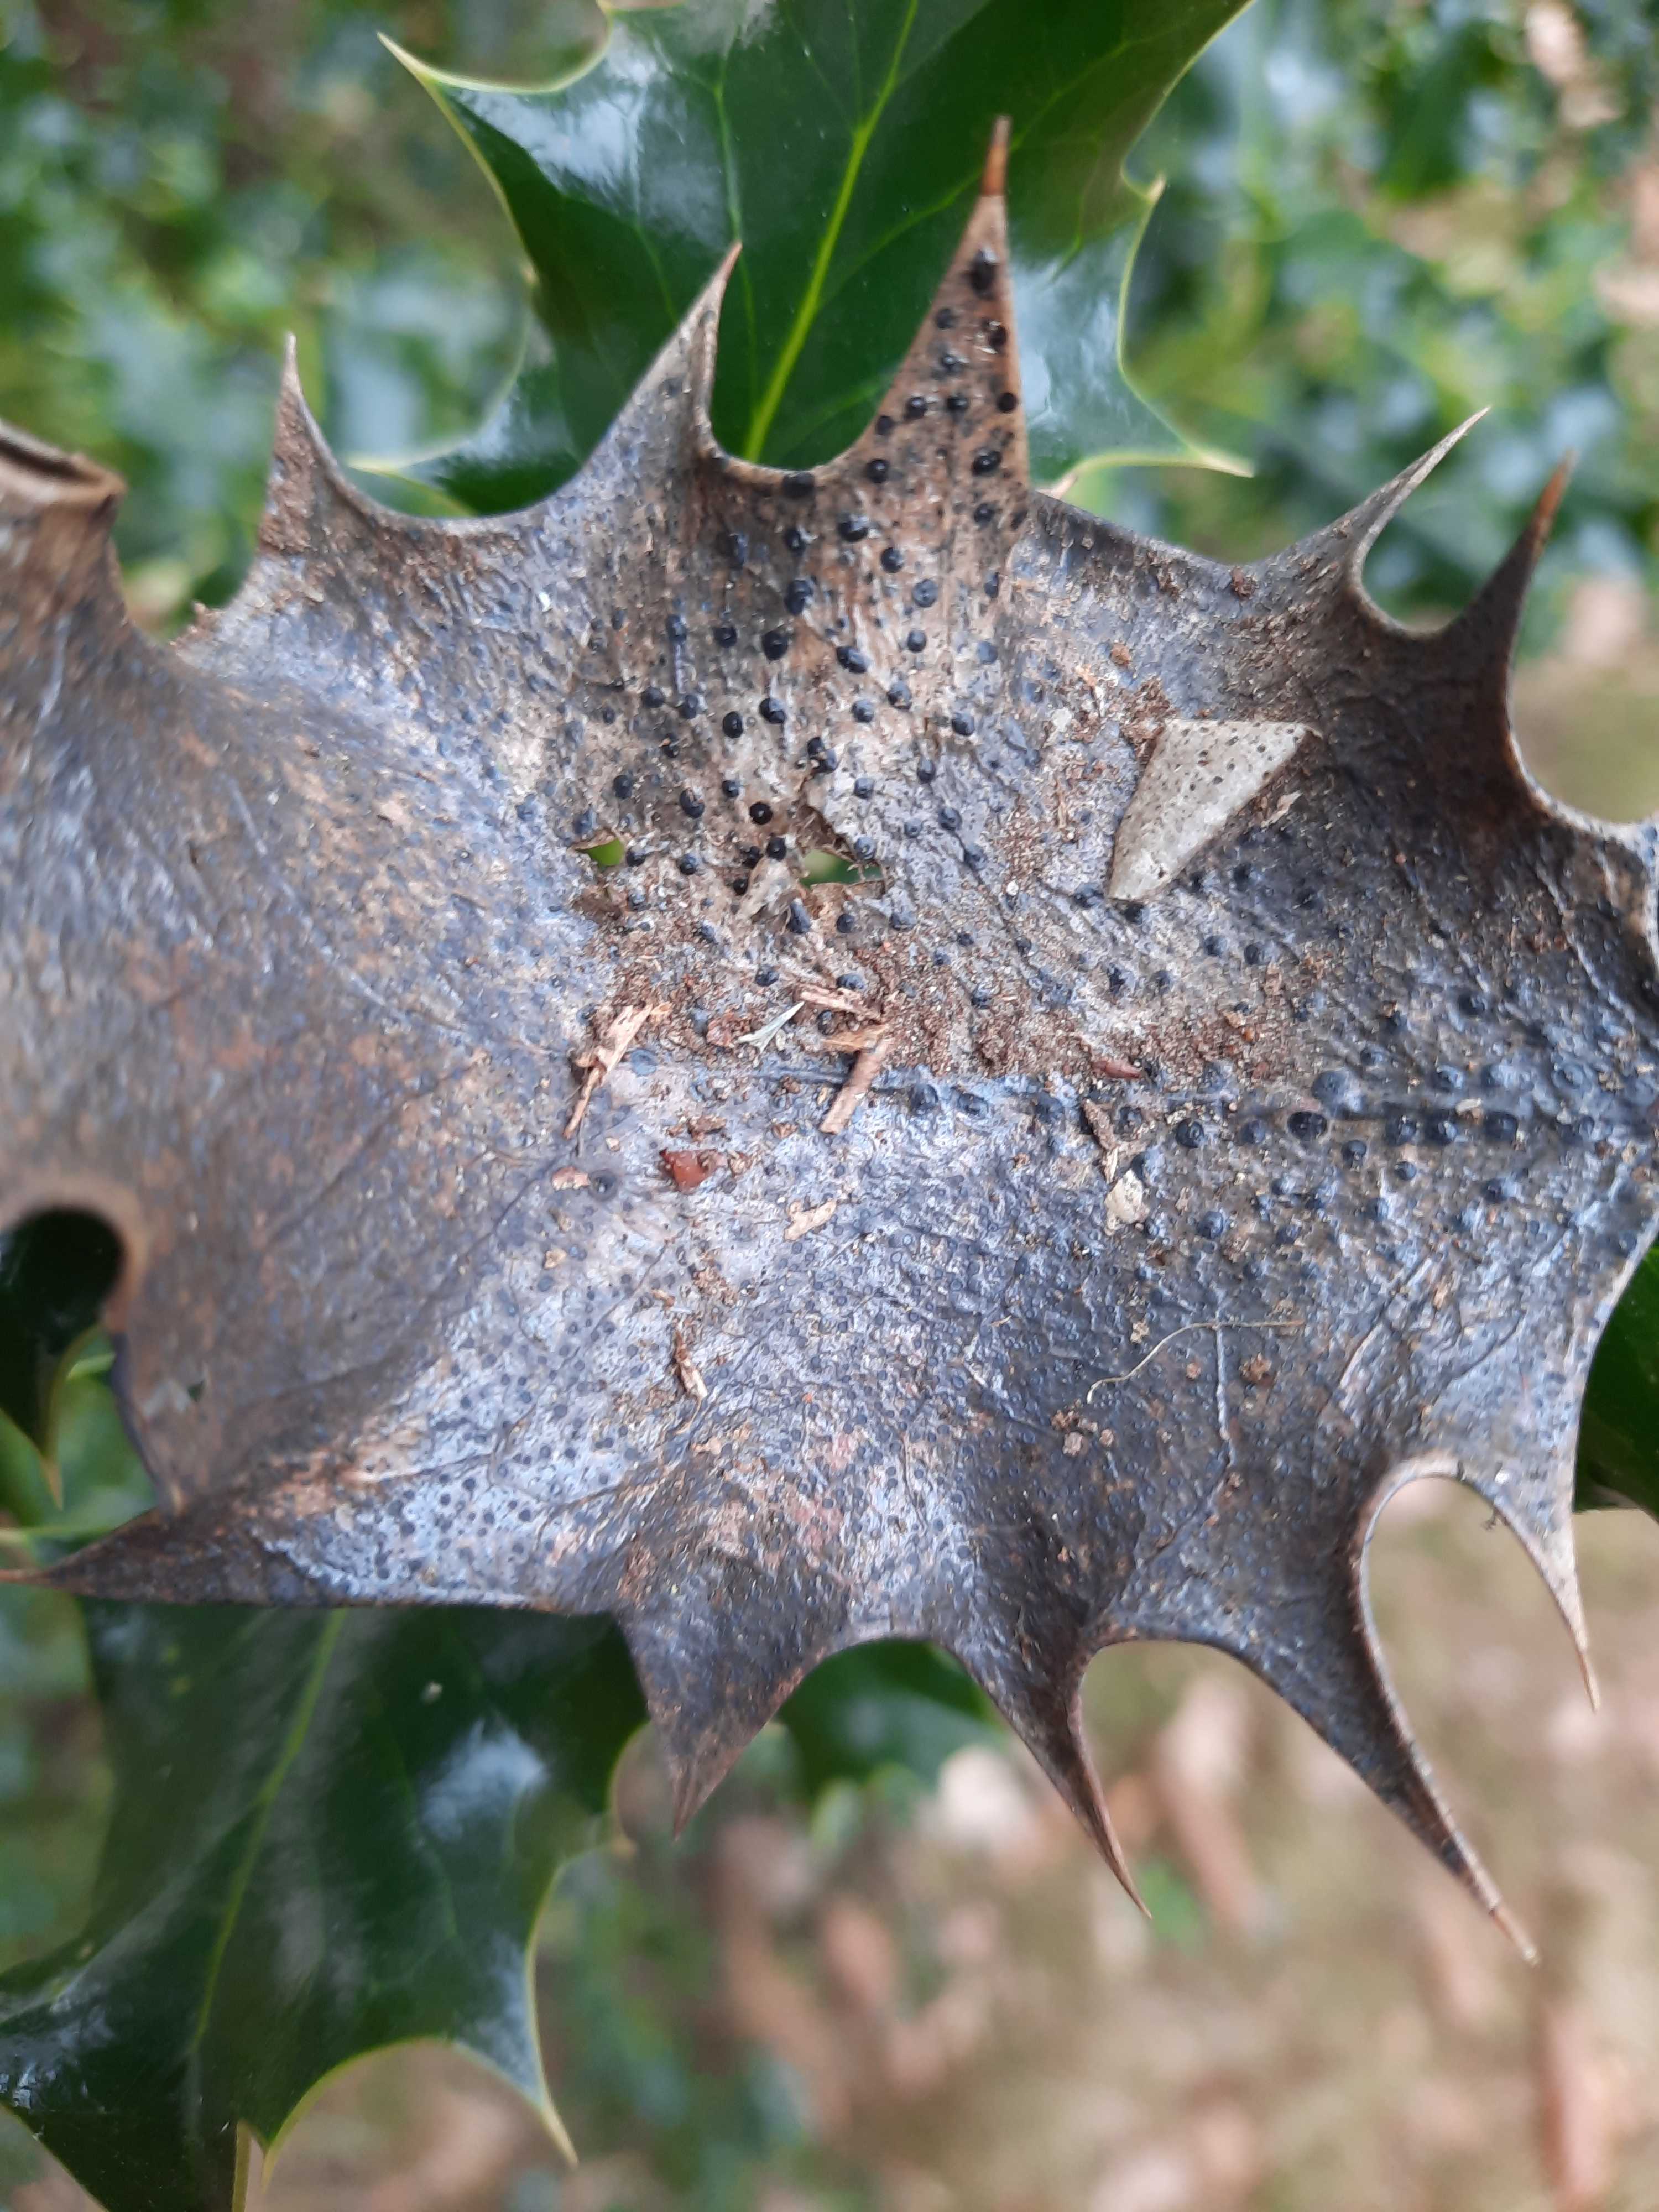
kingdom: Fungi
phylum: Ascomycota
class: Leotiomycetes
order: Phacidiales
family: Phacidiaceae
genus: Phacidium
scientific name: Phacidium lauri
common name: kristtorn-tandskive
